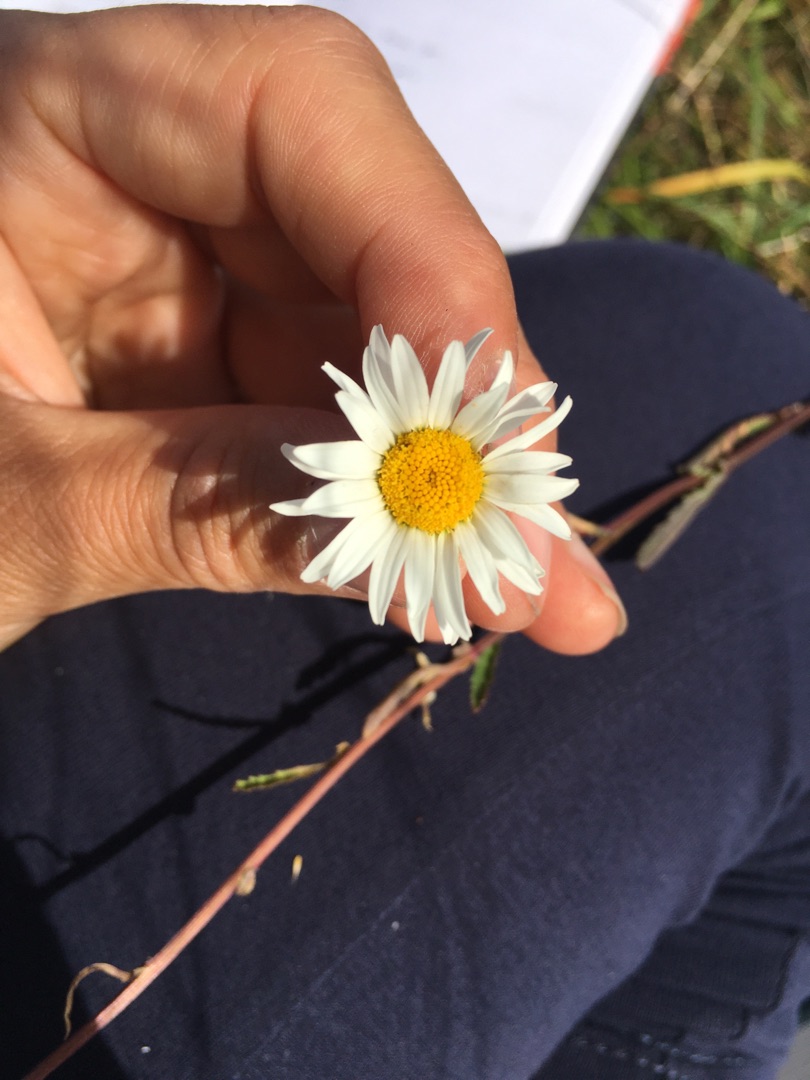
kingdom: Plantae
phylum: Tracheophyta
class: Magnoliopsida
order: Asterales
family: Asteraceae
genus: Leucanthemum
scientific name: Leucanthemum vulgare
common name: Hvid okseøje
